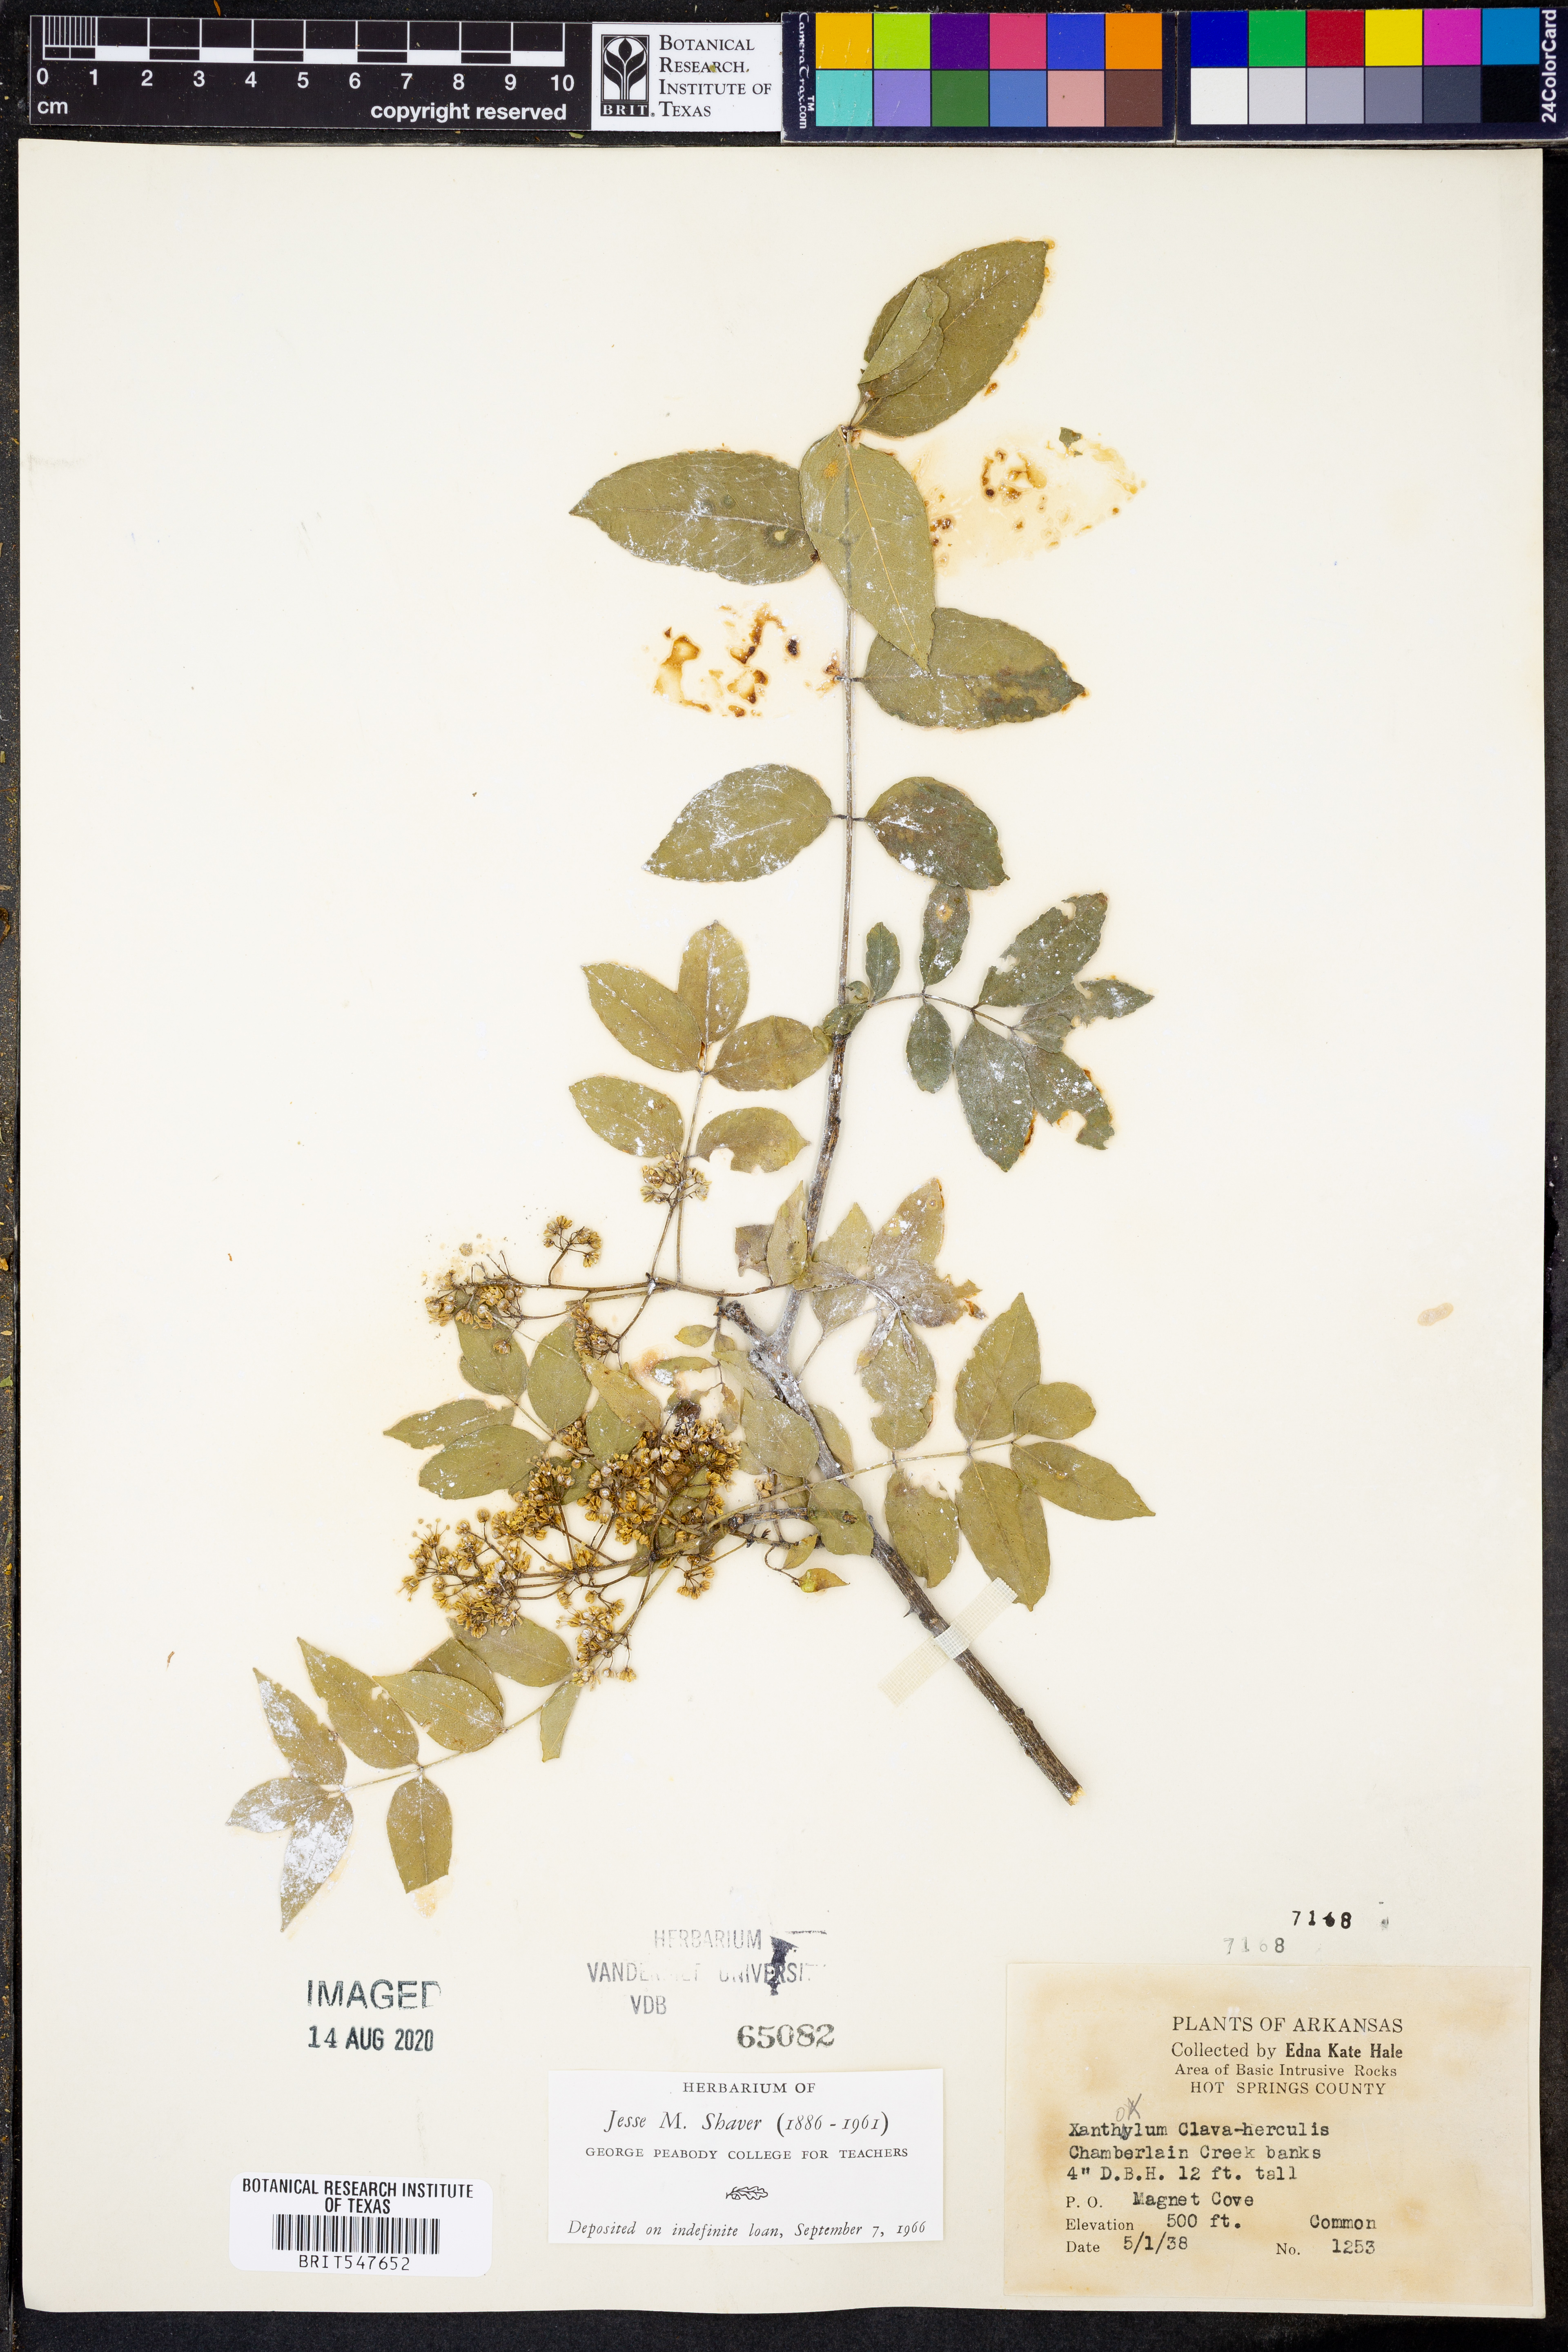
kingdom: Plantae
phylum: Tracheophyta
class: Magnoliopsida
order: Sapindales
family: Rutaceae
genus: Zanthoxylum
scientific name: Zanthoxylum avicennae
